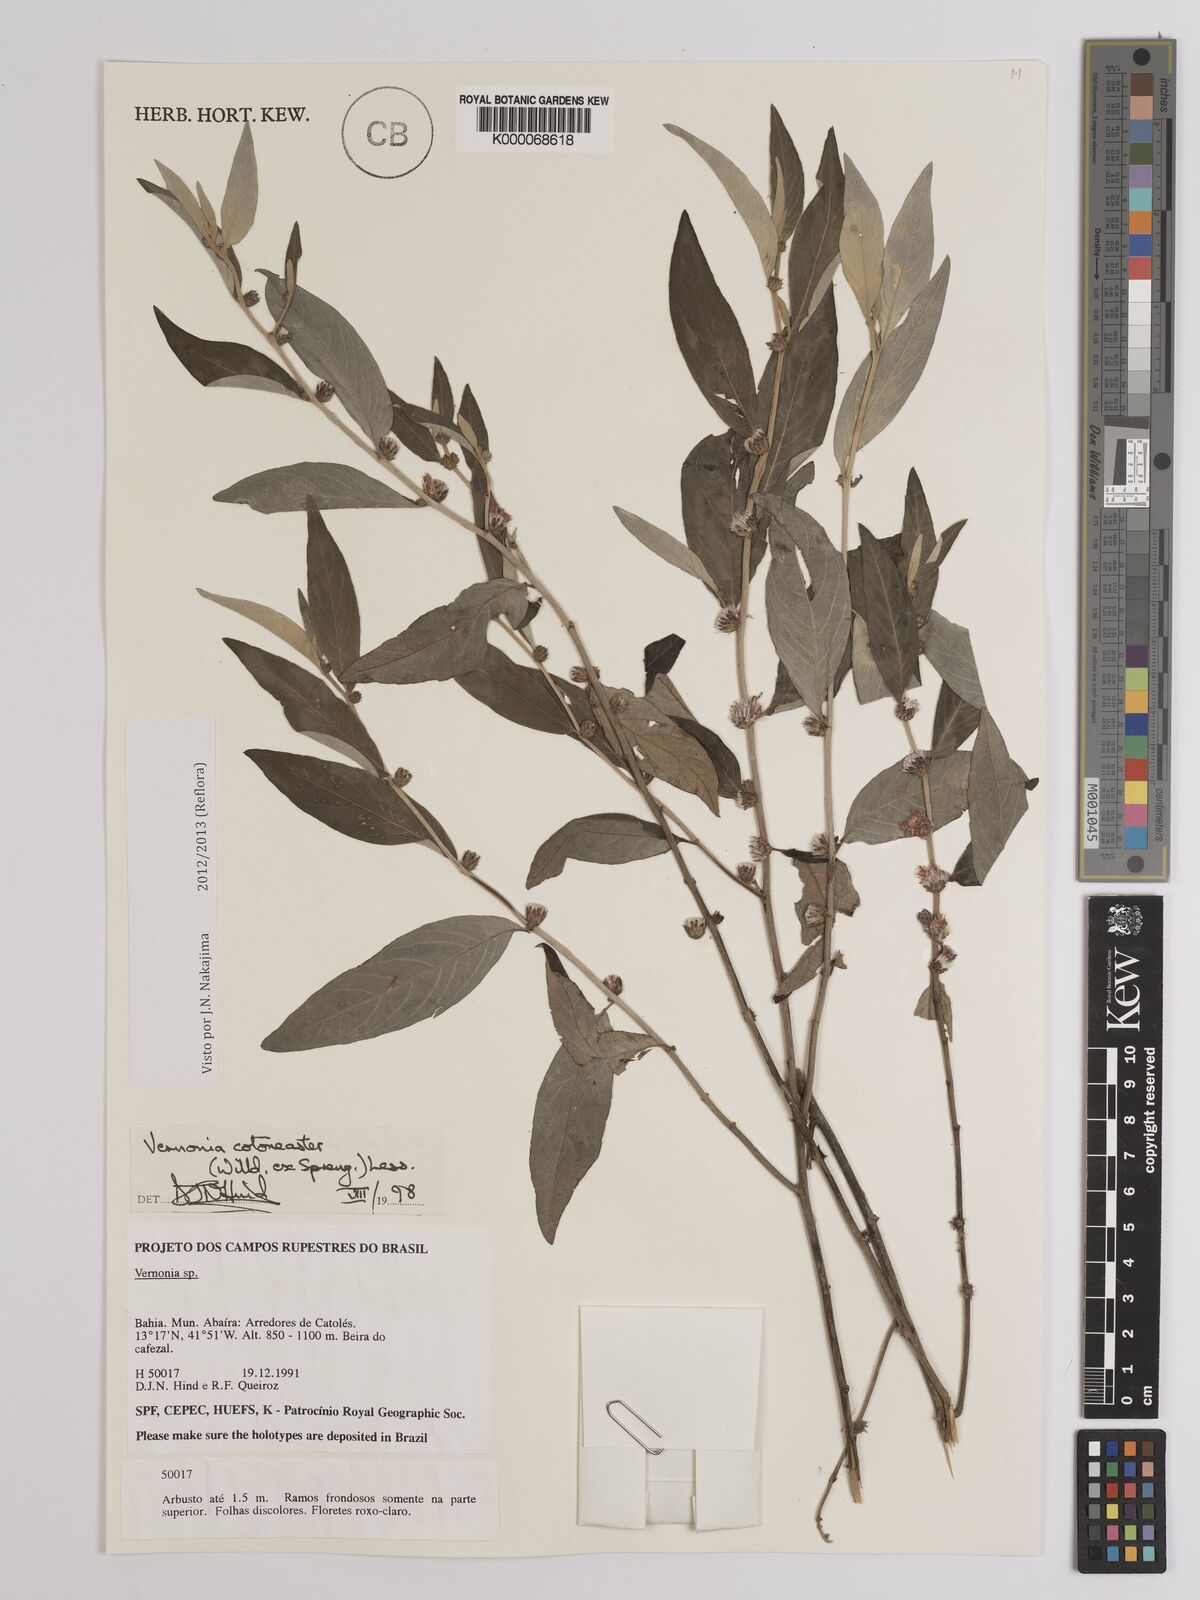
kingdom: Plantae
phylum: Tracheophyta
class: Magnoliopsida
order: Asterales
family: Asteraceae
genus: Lepidaploa
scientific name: Lepidaploa cotoneaster
